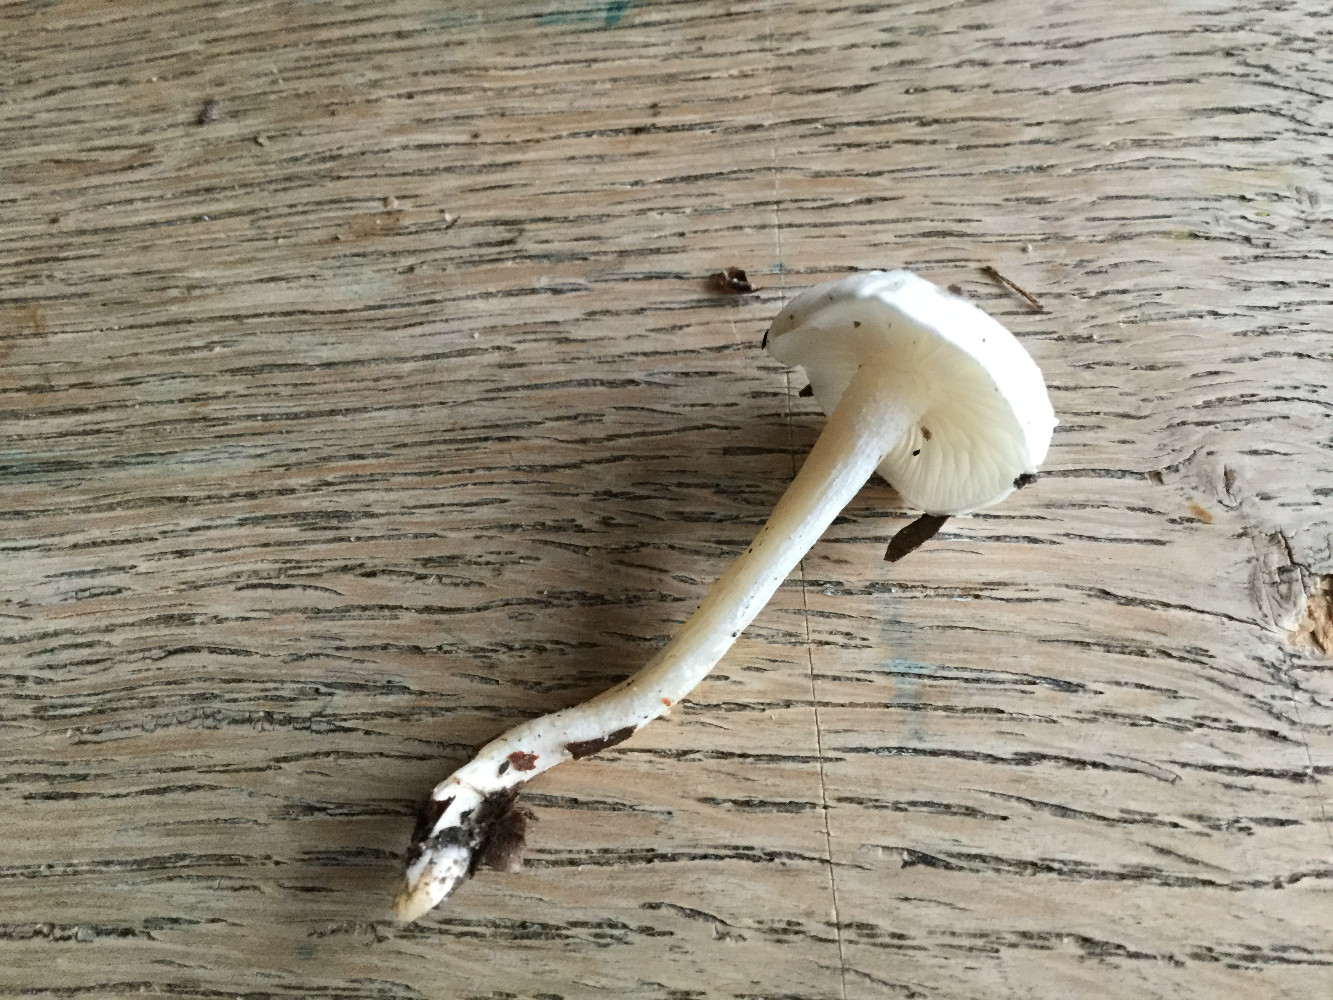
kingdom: Fungi
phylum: Basidiomycota
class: Agaricomycetes
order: Agaricales
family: Hygrophoraceae
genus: Hygrophorus
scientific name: Hygrophorus eburneus
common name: elfenbens-sneglehat
